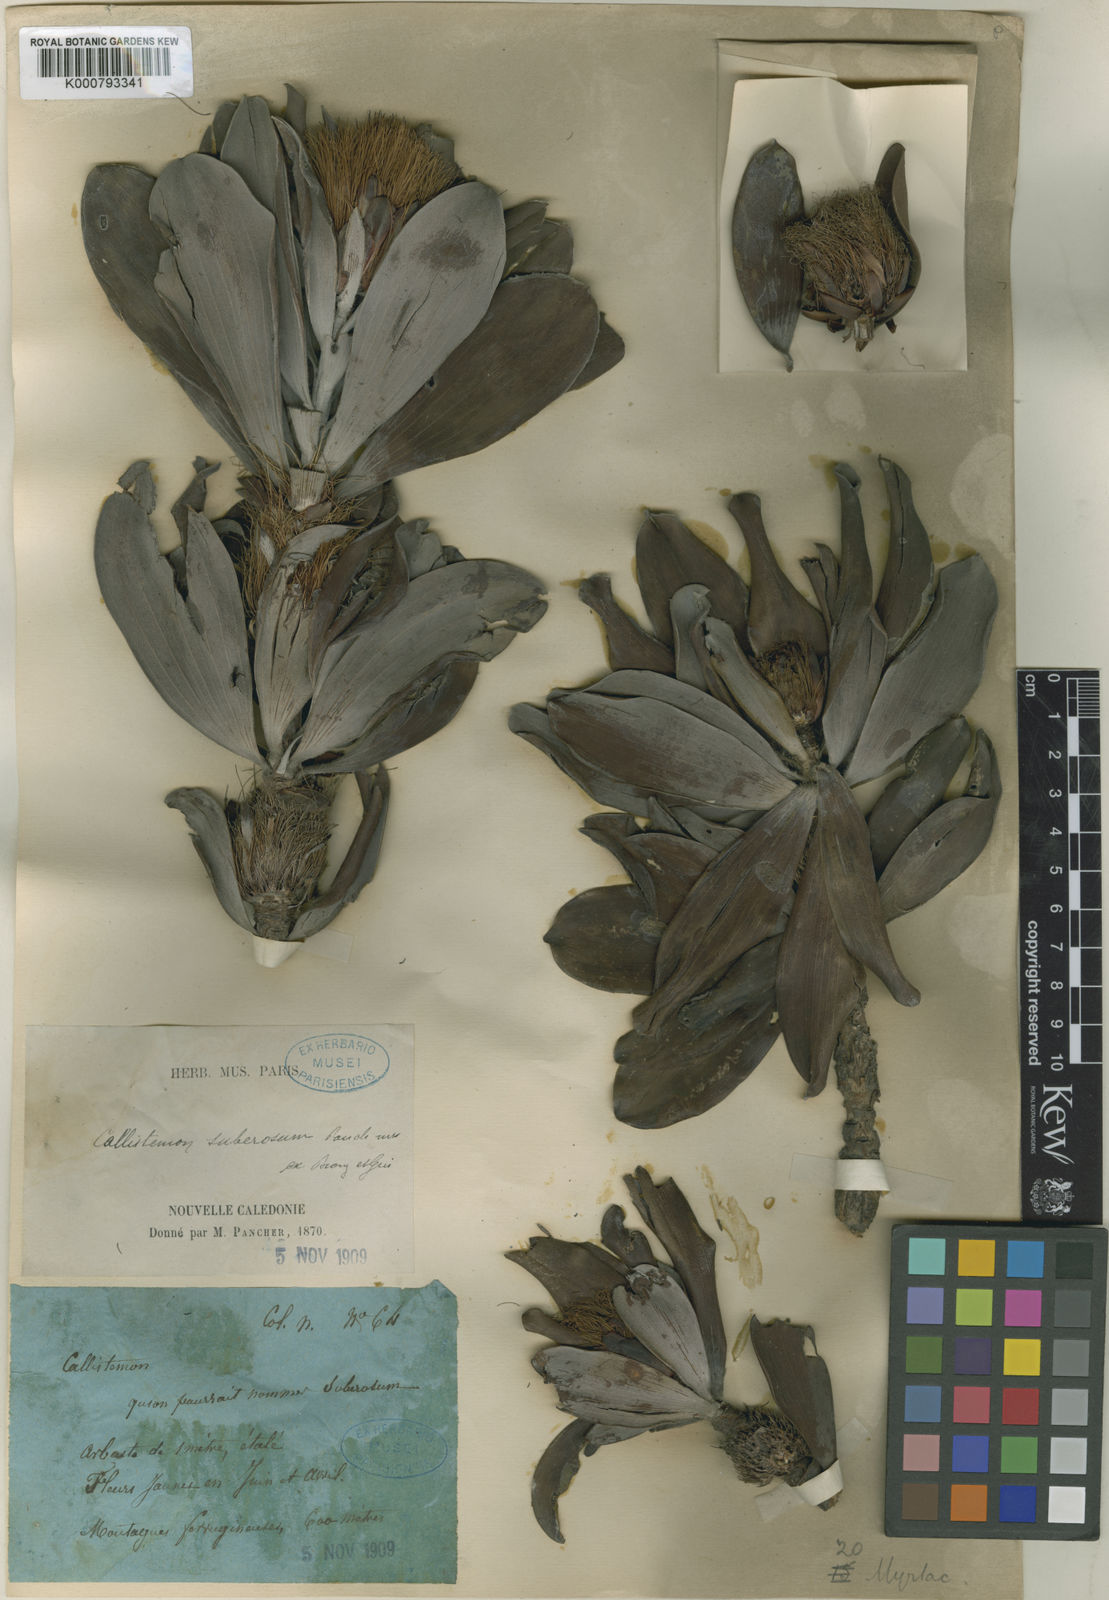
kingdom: Plantae
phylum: Tracheophyta
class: Magnoliopsida
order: Myrtales
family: Myrtaceae
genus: Melaleuca
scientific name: Melaleuca dawsonii
